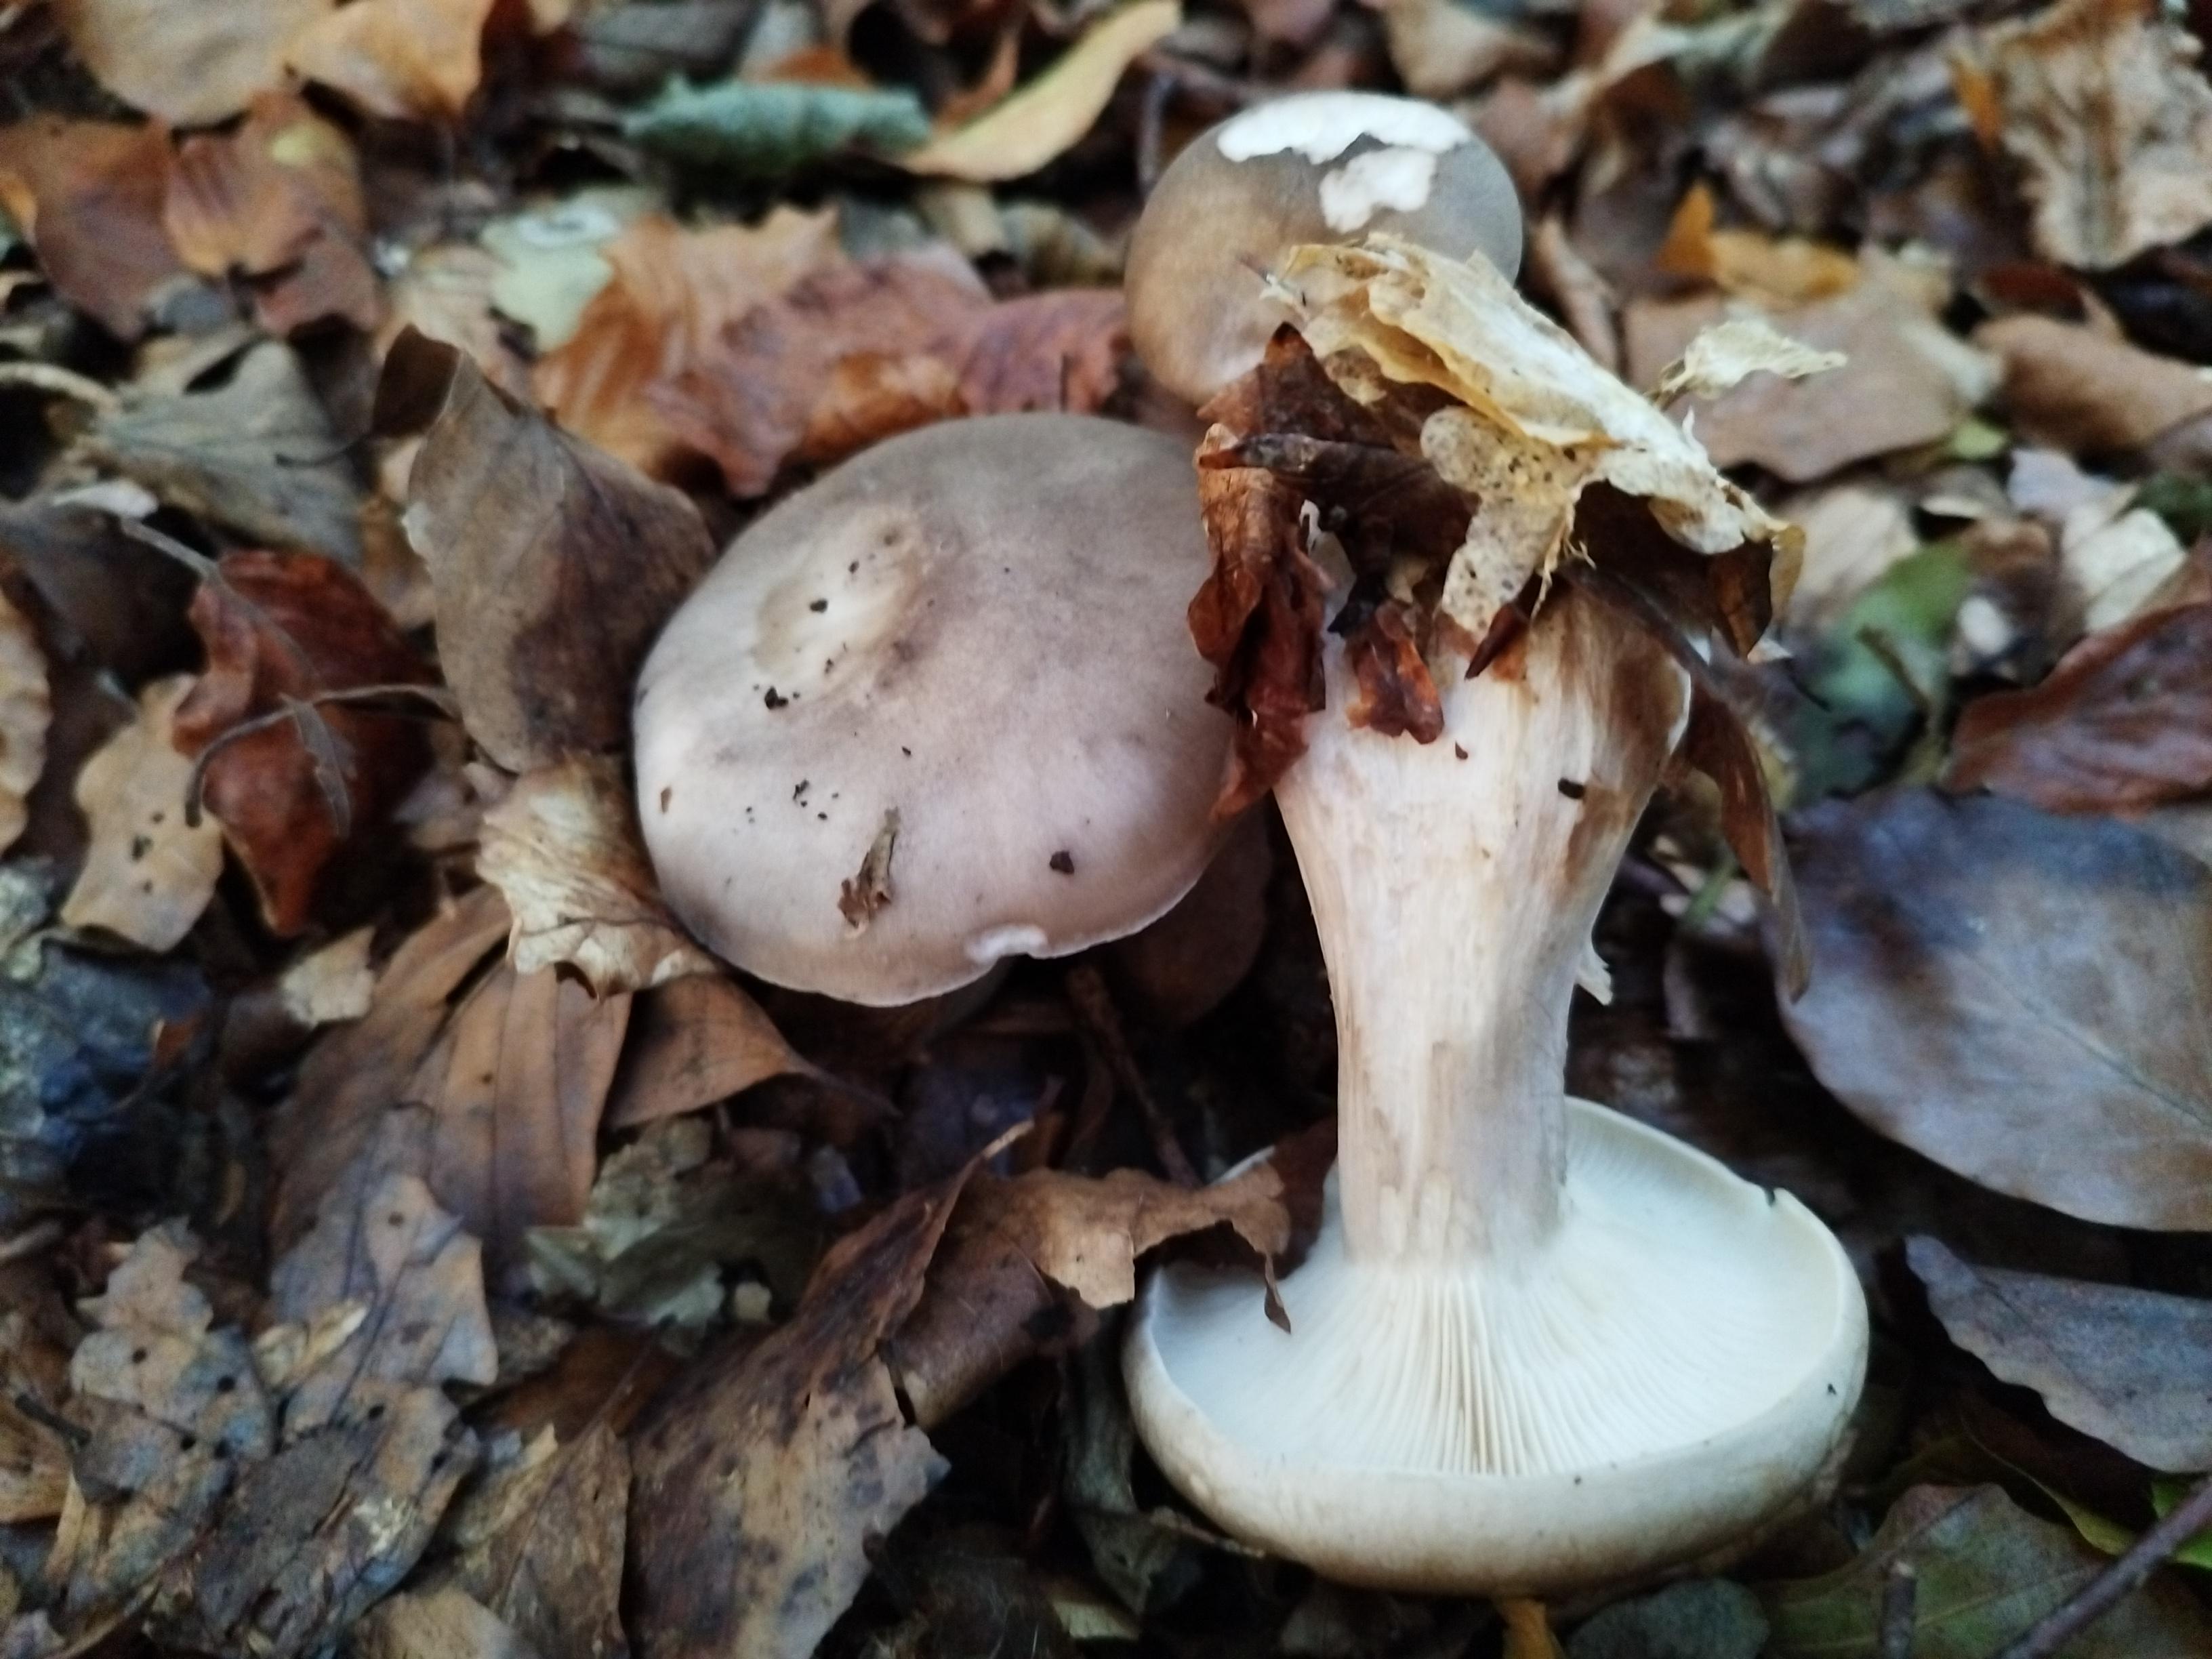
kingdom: Fungi
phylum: Basidiomycota
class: Agaricomycetes
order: Agaricales
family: Tricholomataceae
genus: Clitocybe
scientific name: Clitocybe nebularis
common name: tåge-tragthat
